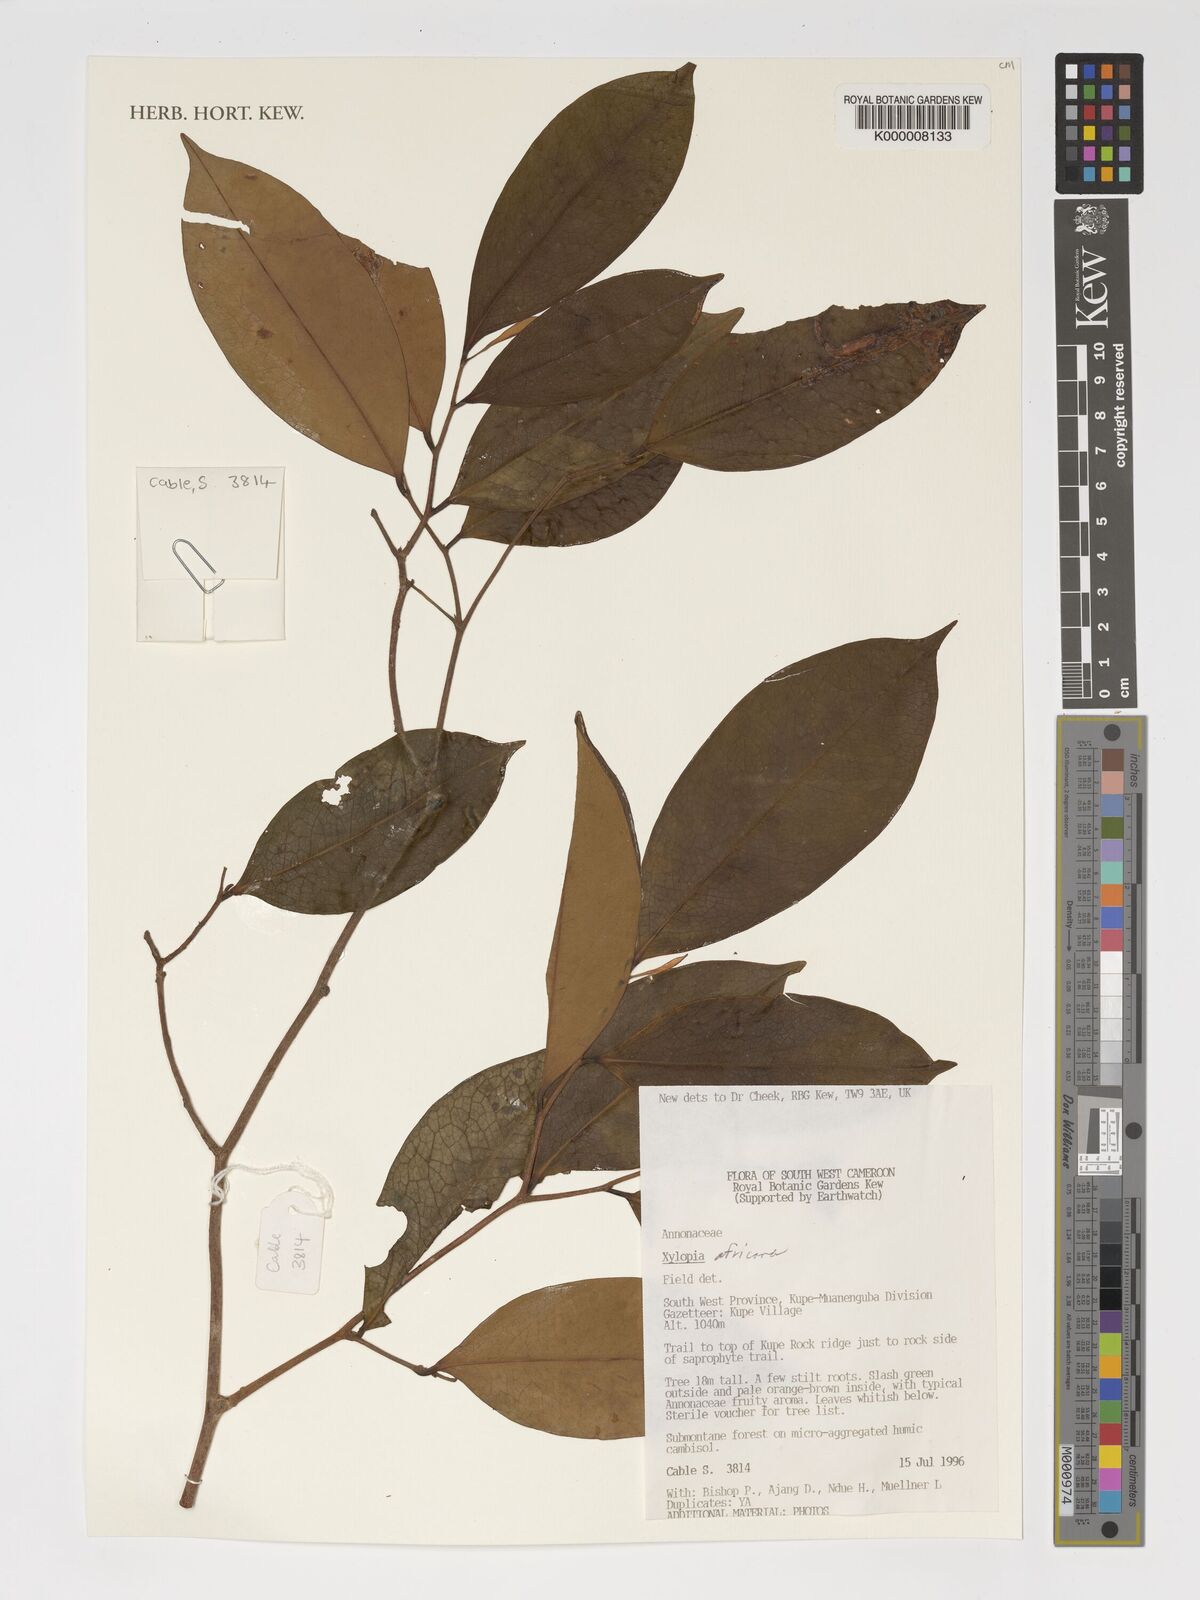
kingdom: Plantae
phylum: Tracheophyta
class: Magnoliopsida
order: Magnoliales
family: Annonaceae
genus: Xylopia
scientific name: Xylopia africana
